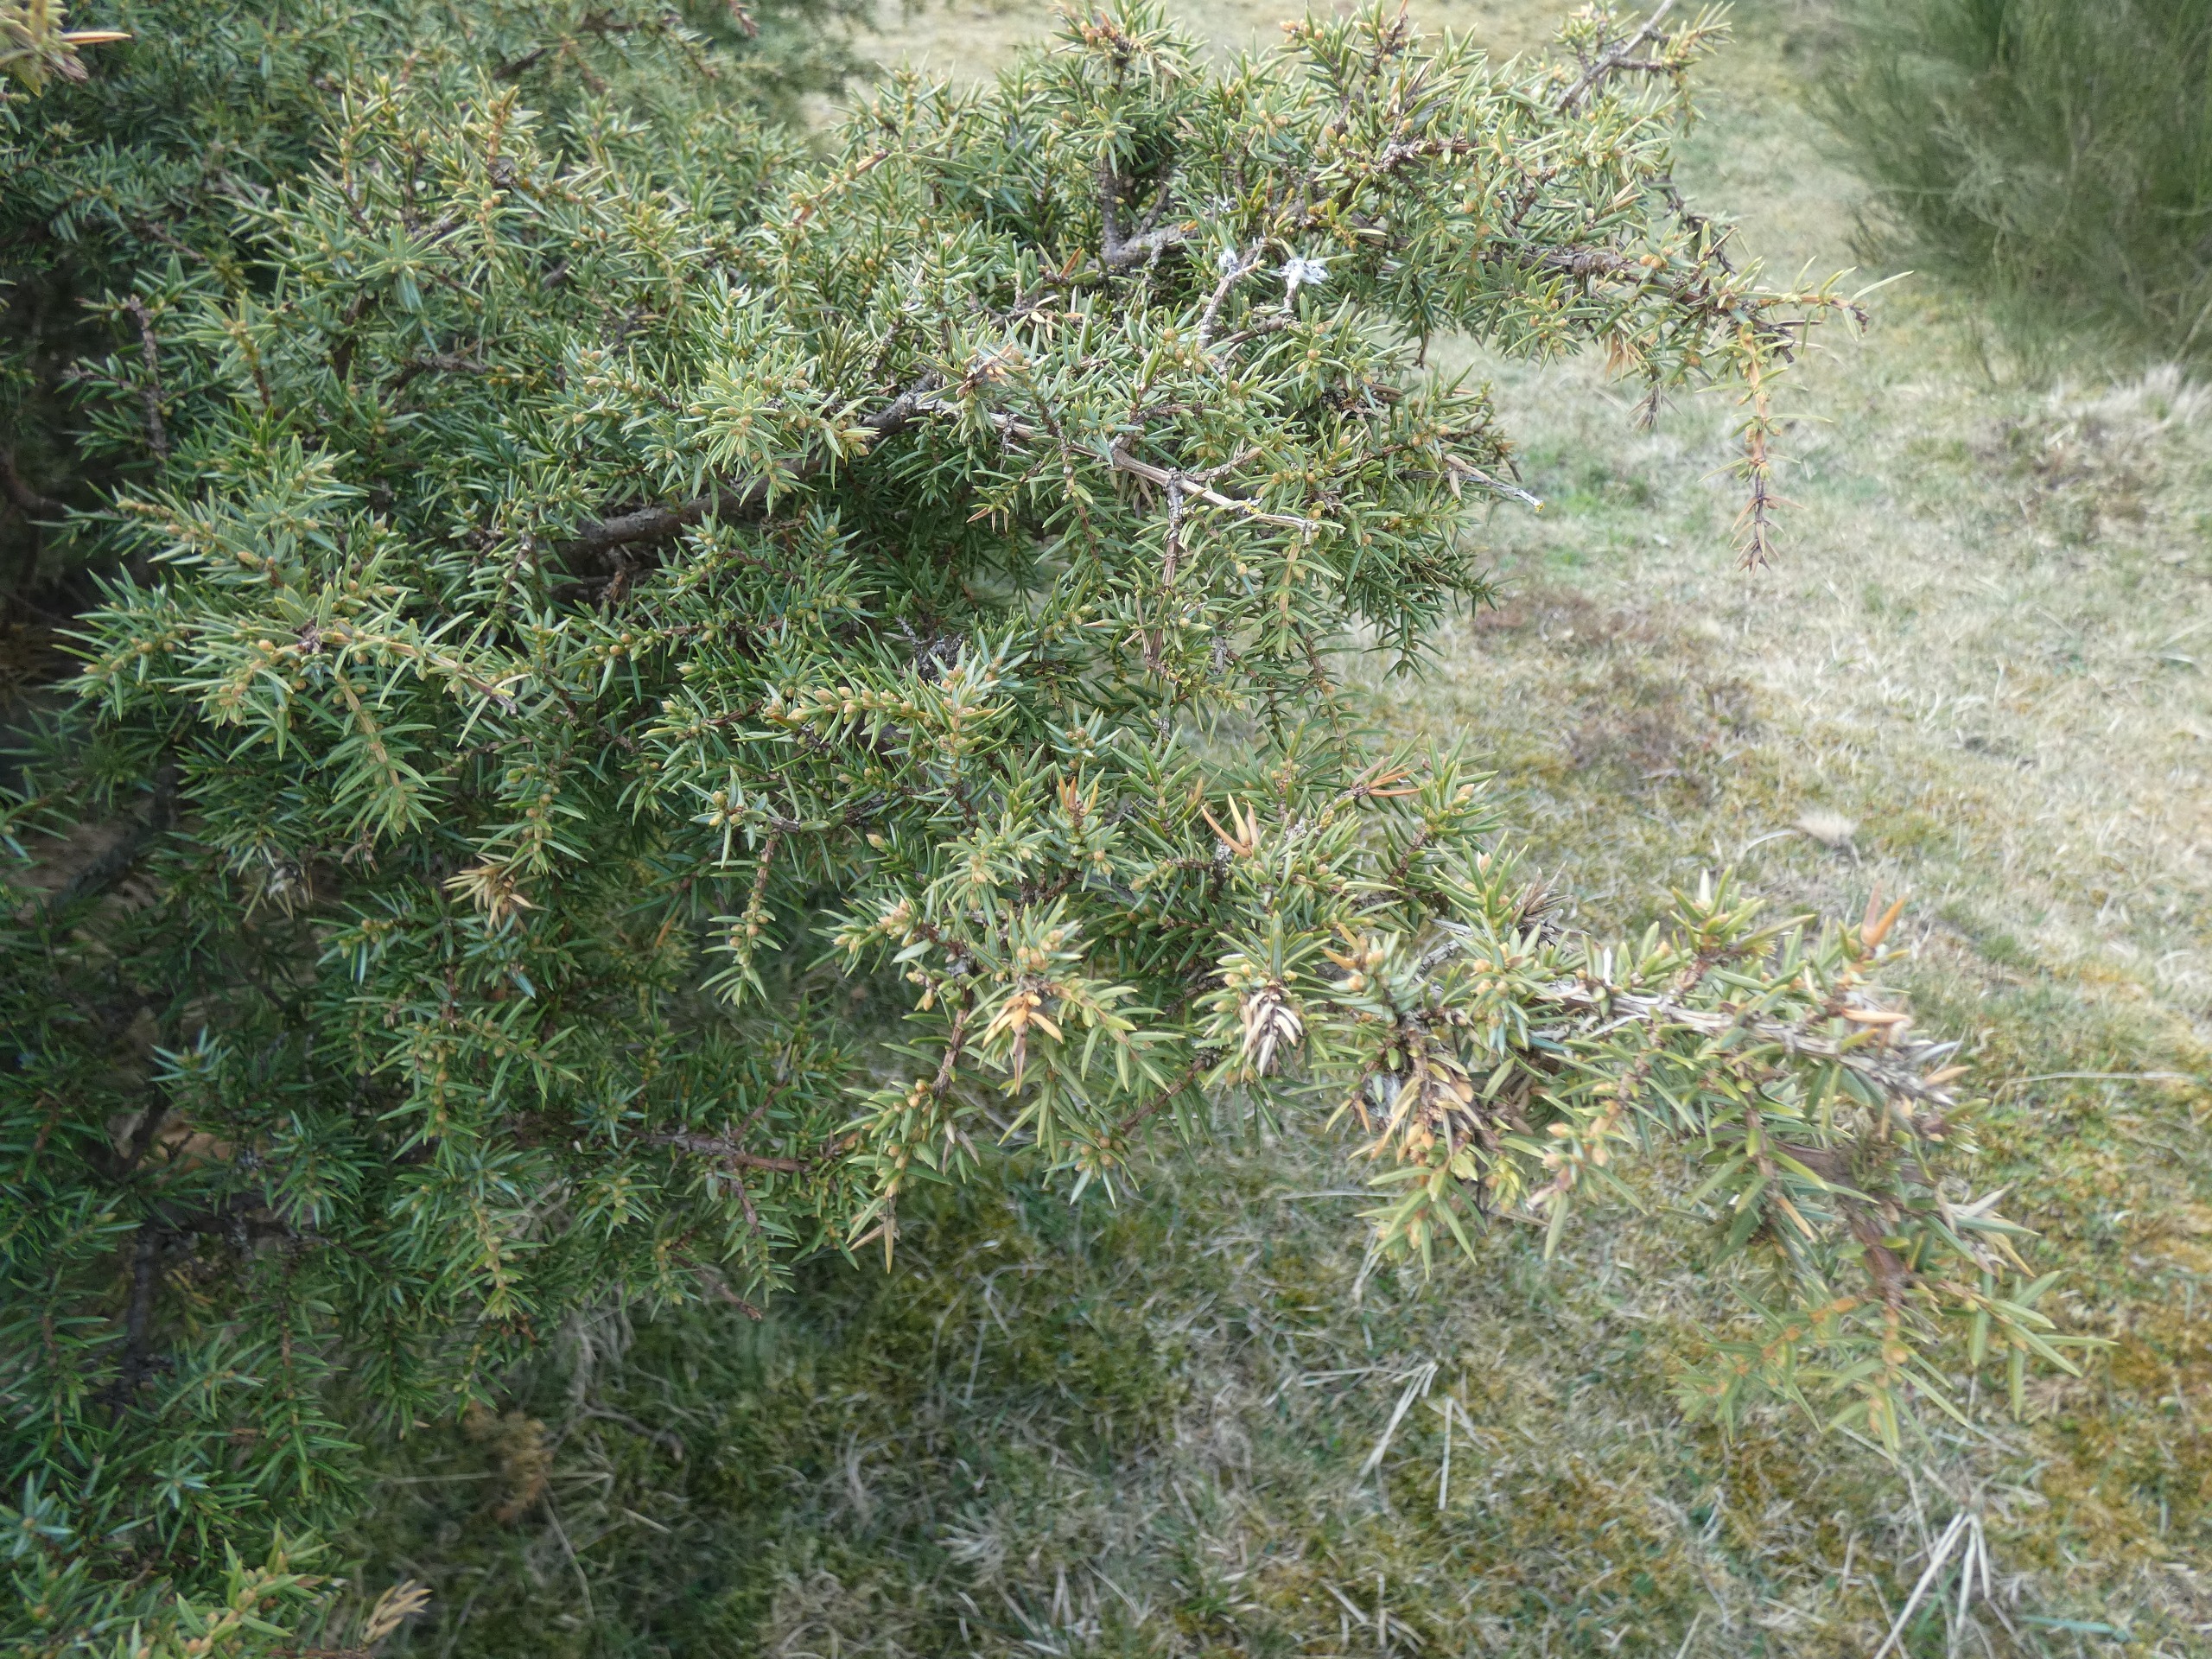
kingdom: Plantae
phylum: Tracheophyta
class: Pinopsida
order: Pinales
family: Cupressaceae
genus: Juniperus
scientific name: Juniperus communis
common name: Almindelig ene
